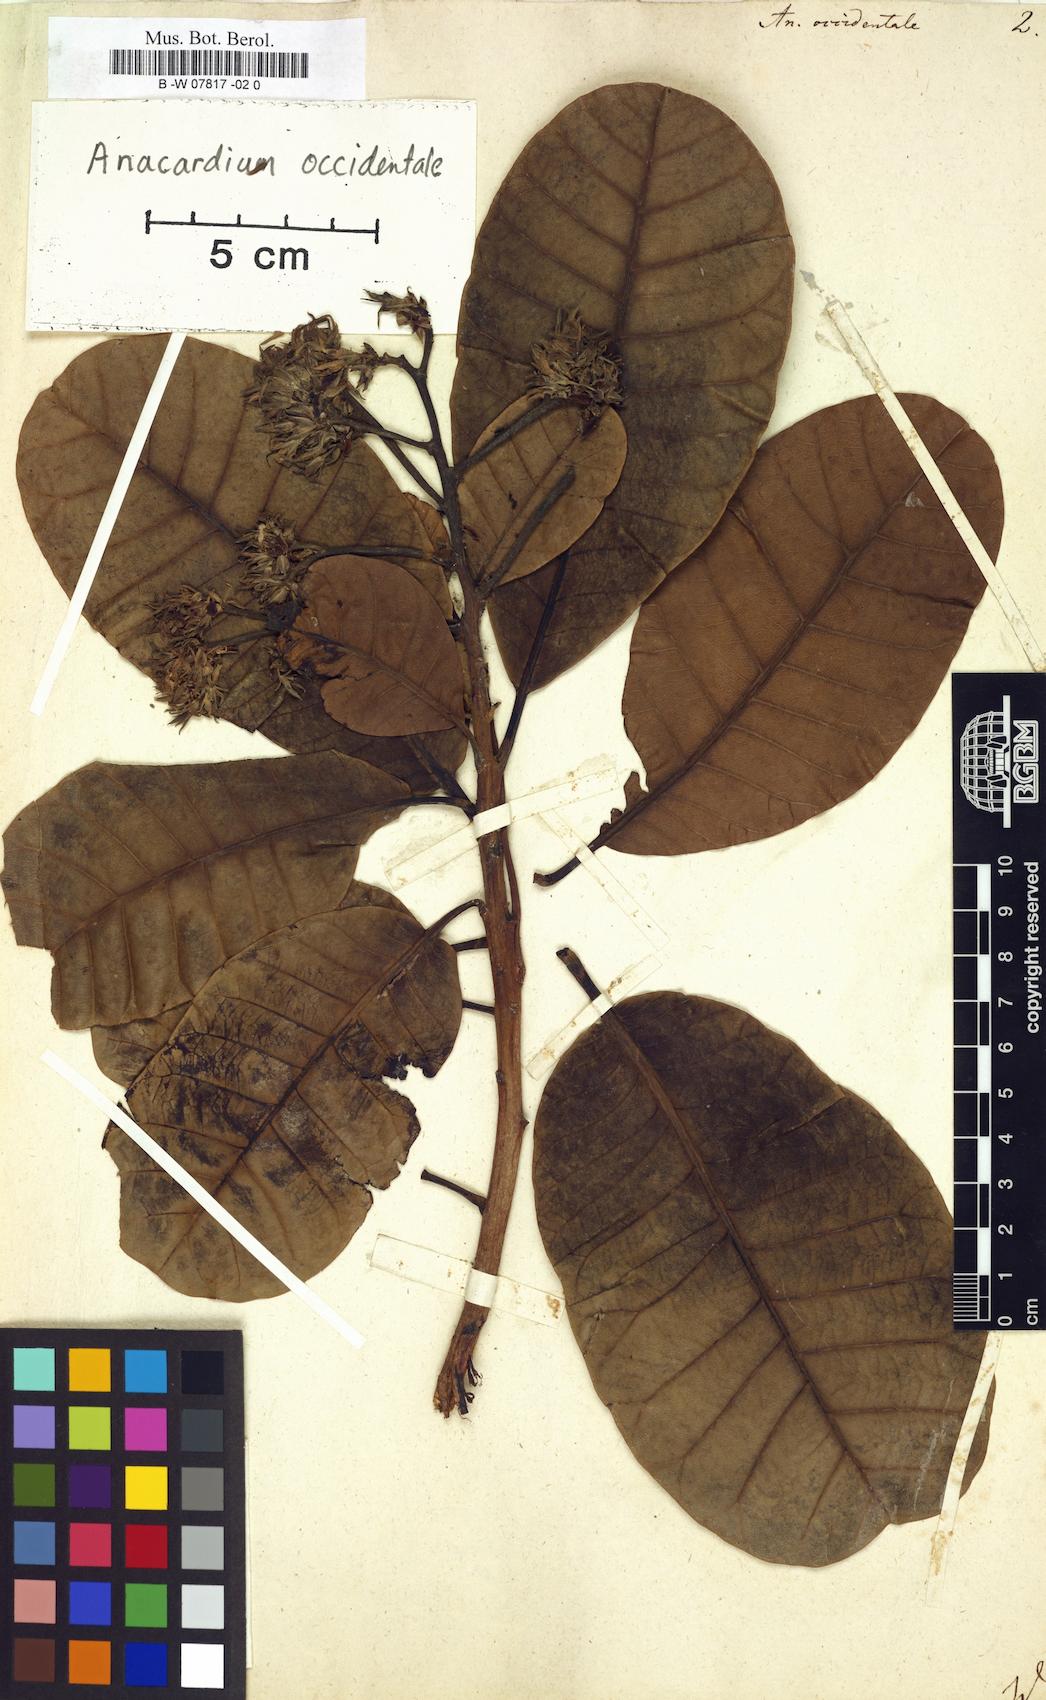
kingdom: Plantae
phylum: Tracheophyta
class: Magnoliopsida
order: Sapindales
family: Anacardiaceae
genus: Anacardium
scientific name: Anacardium occidentale
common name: Cashew
